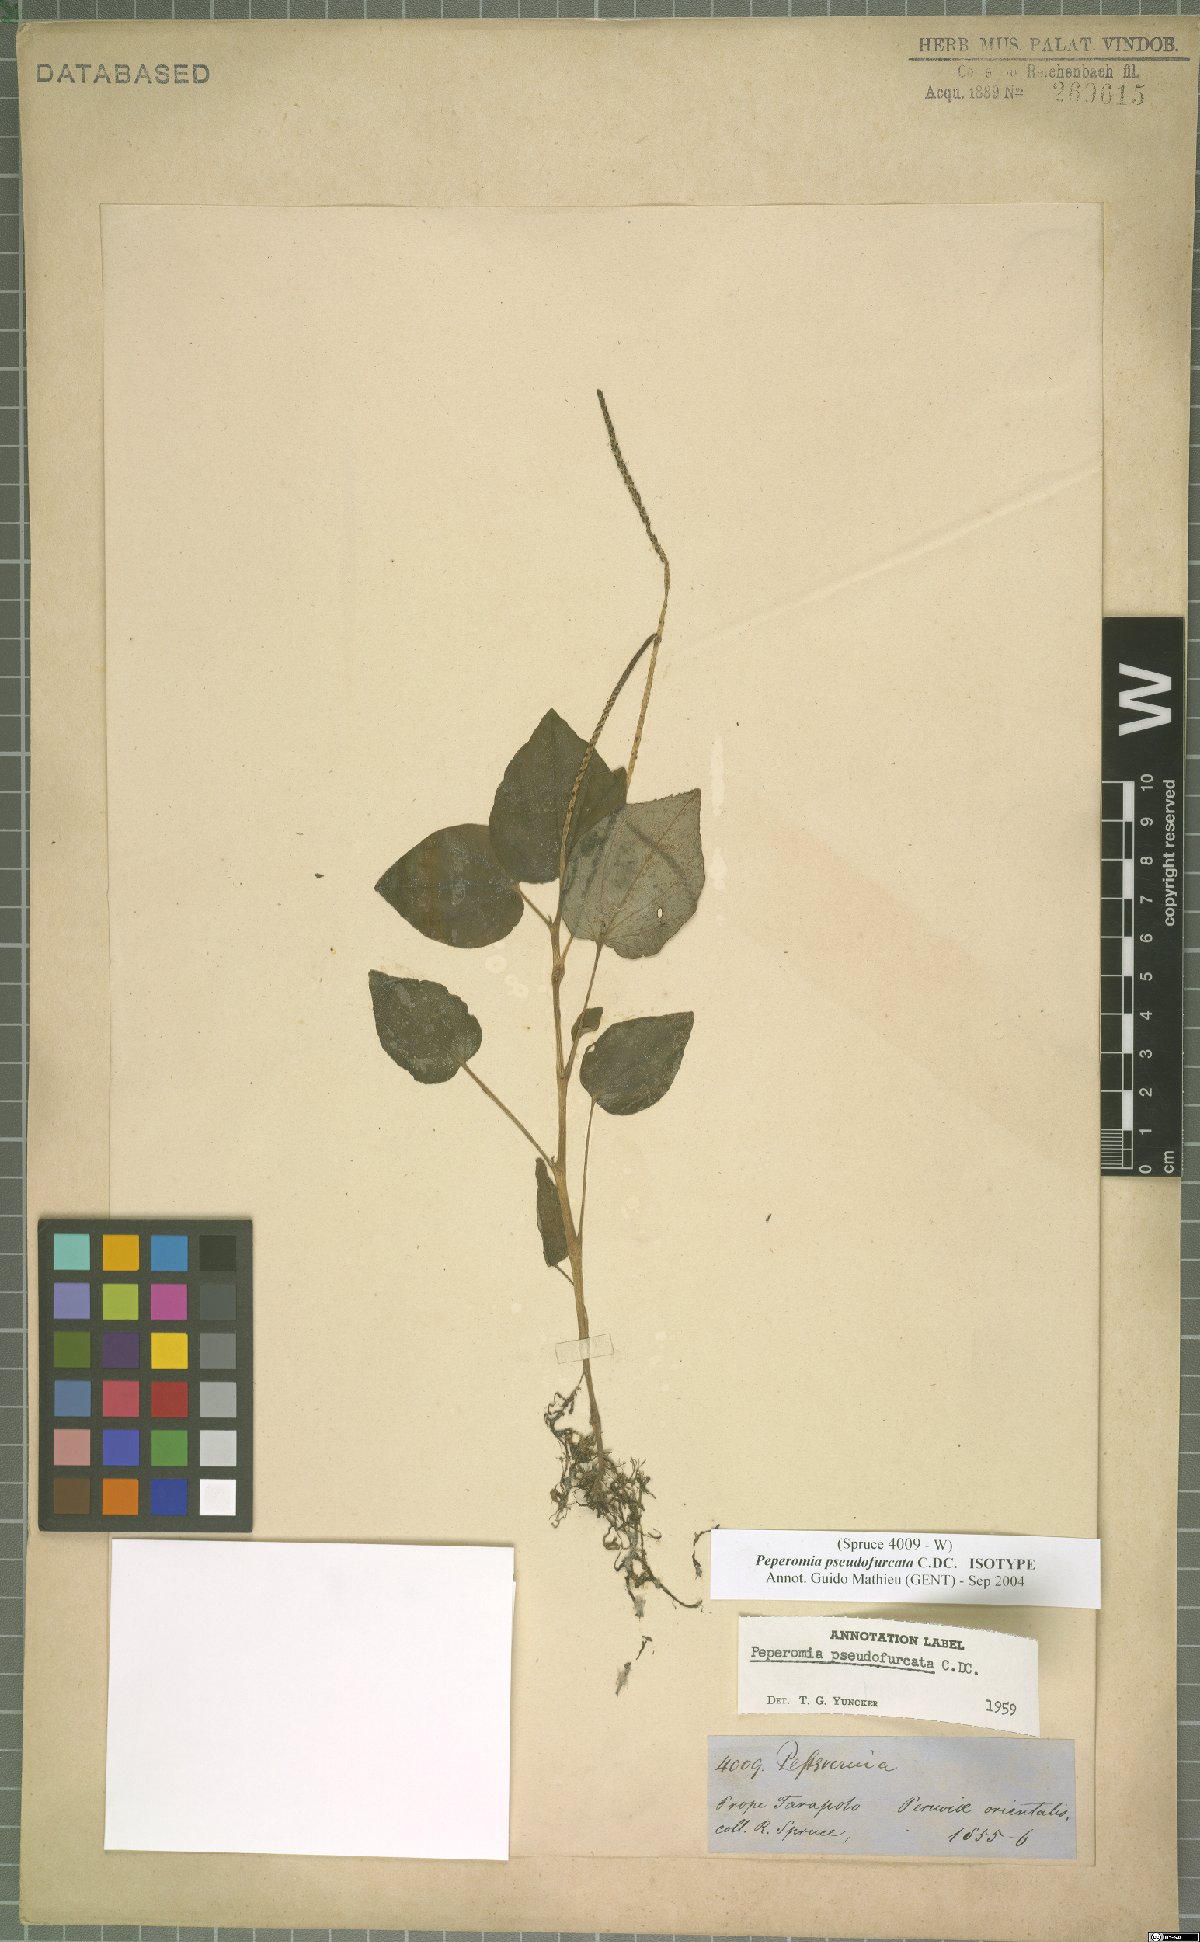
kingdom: Plantae
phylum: Tracheophyta
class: Magnoliopsida
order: Piperales
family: Piperaceae
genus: Peperomia
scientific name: Peperomia pseudofurcata
